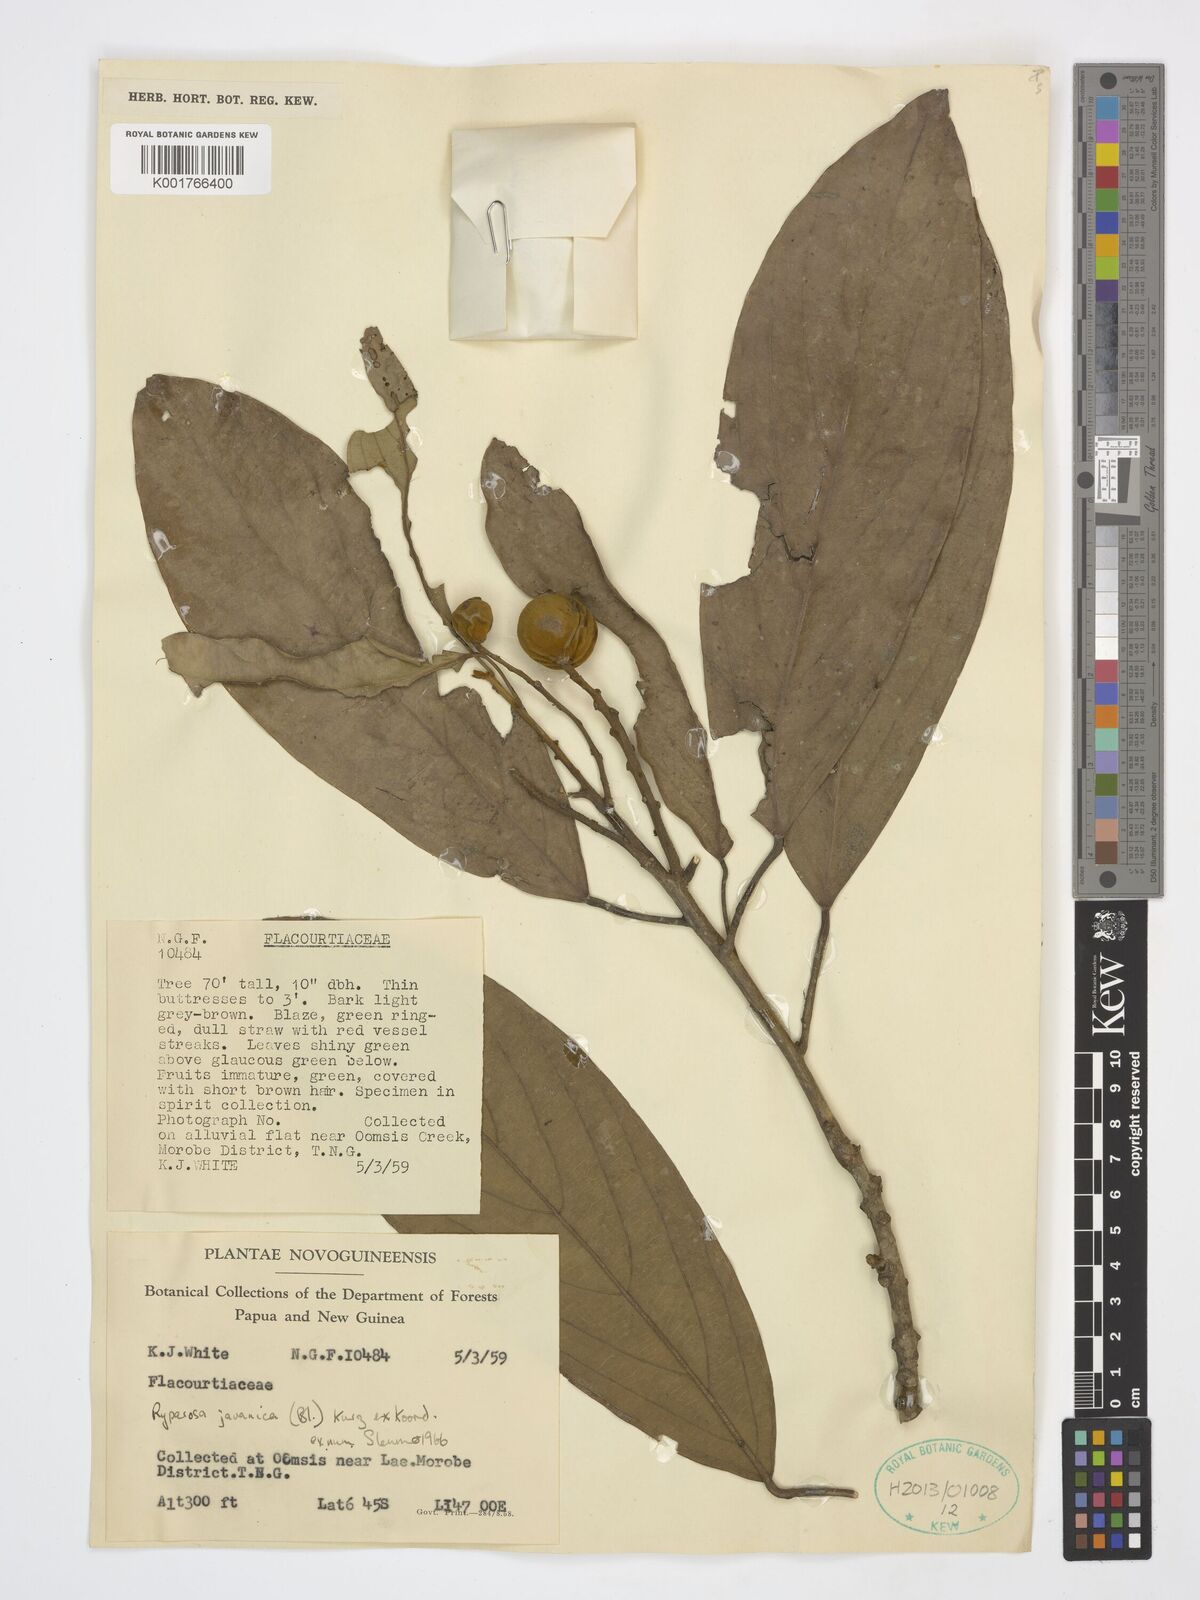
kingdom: Plantae
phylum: Tracheophyta
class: Magnoliopsida
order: Malpighiales
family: Achariaceae
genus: Ryparosa
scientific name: Ryparosa javanica
